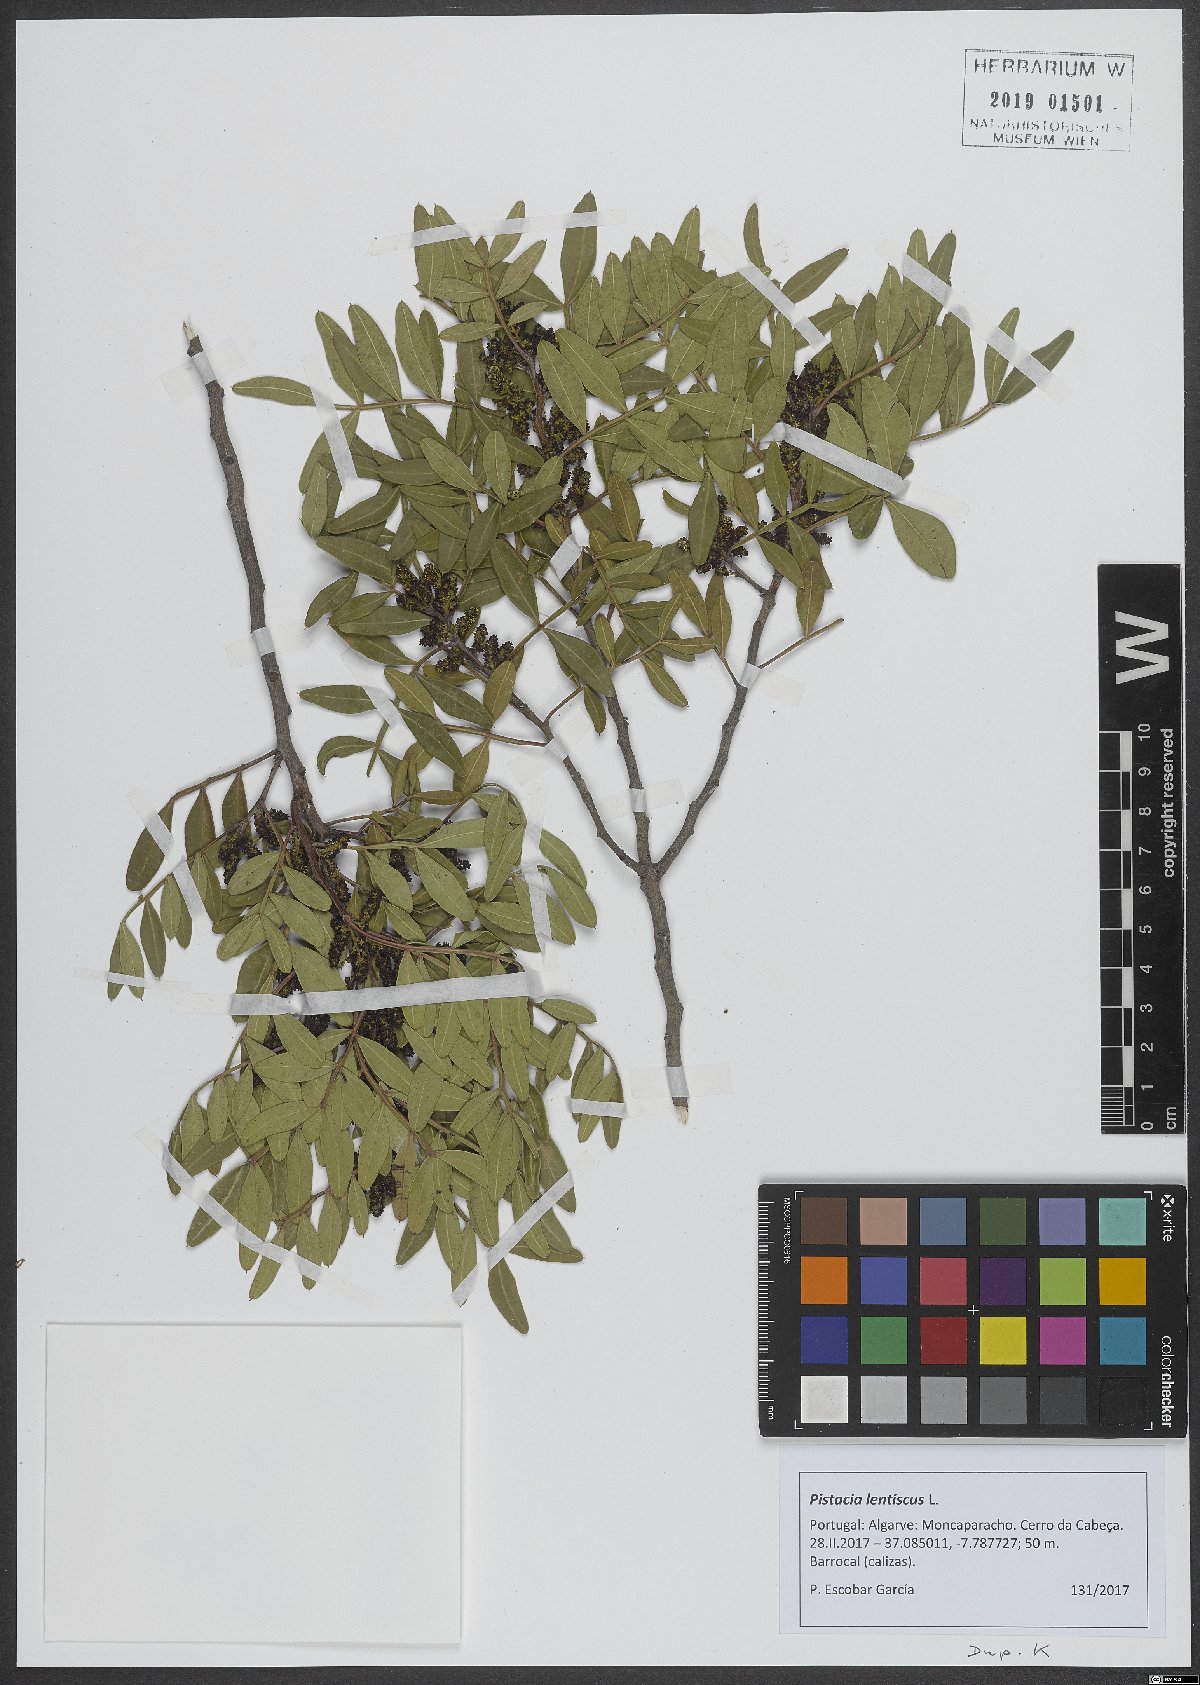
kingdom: Plantae
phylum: Tracheophyta
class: Magnoliopsida
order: Sapindales
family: Anacardiaceae
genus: Pistacia
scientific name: Pistacia lentiscus
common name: Lentisk
